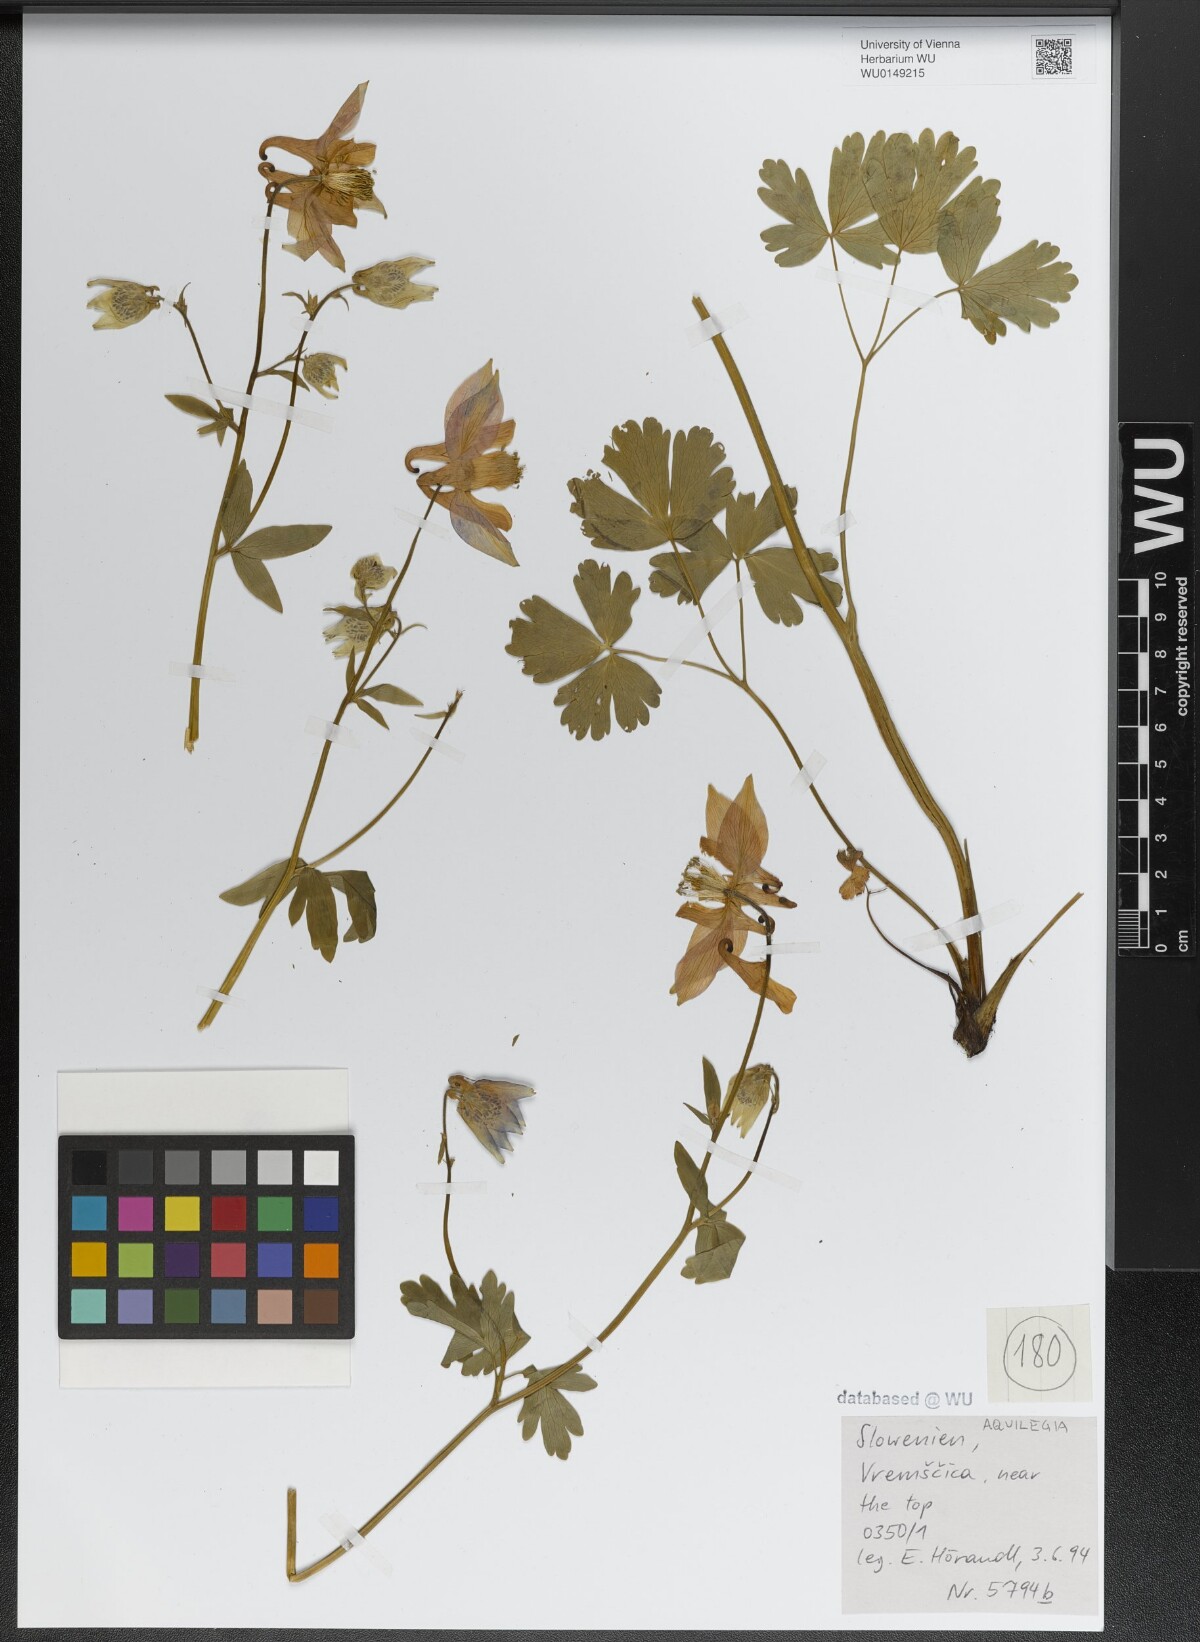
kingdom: Plantae
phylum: Tracheophyta
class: Magnoliopsida
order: Ranunculales
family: Ranunculaceae
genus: Aquilegia
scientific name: Aquilegia
